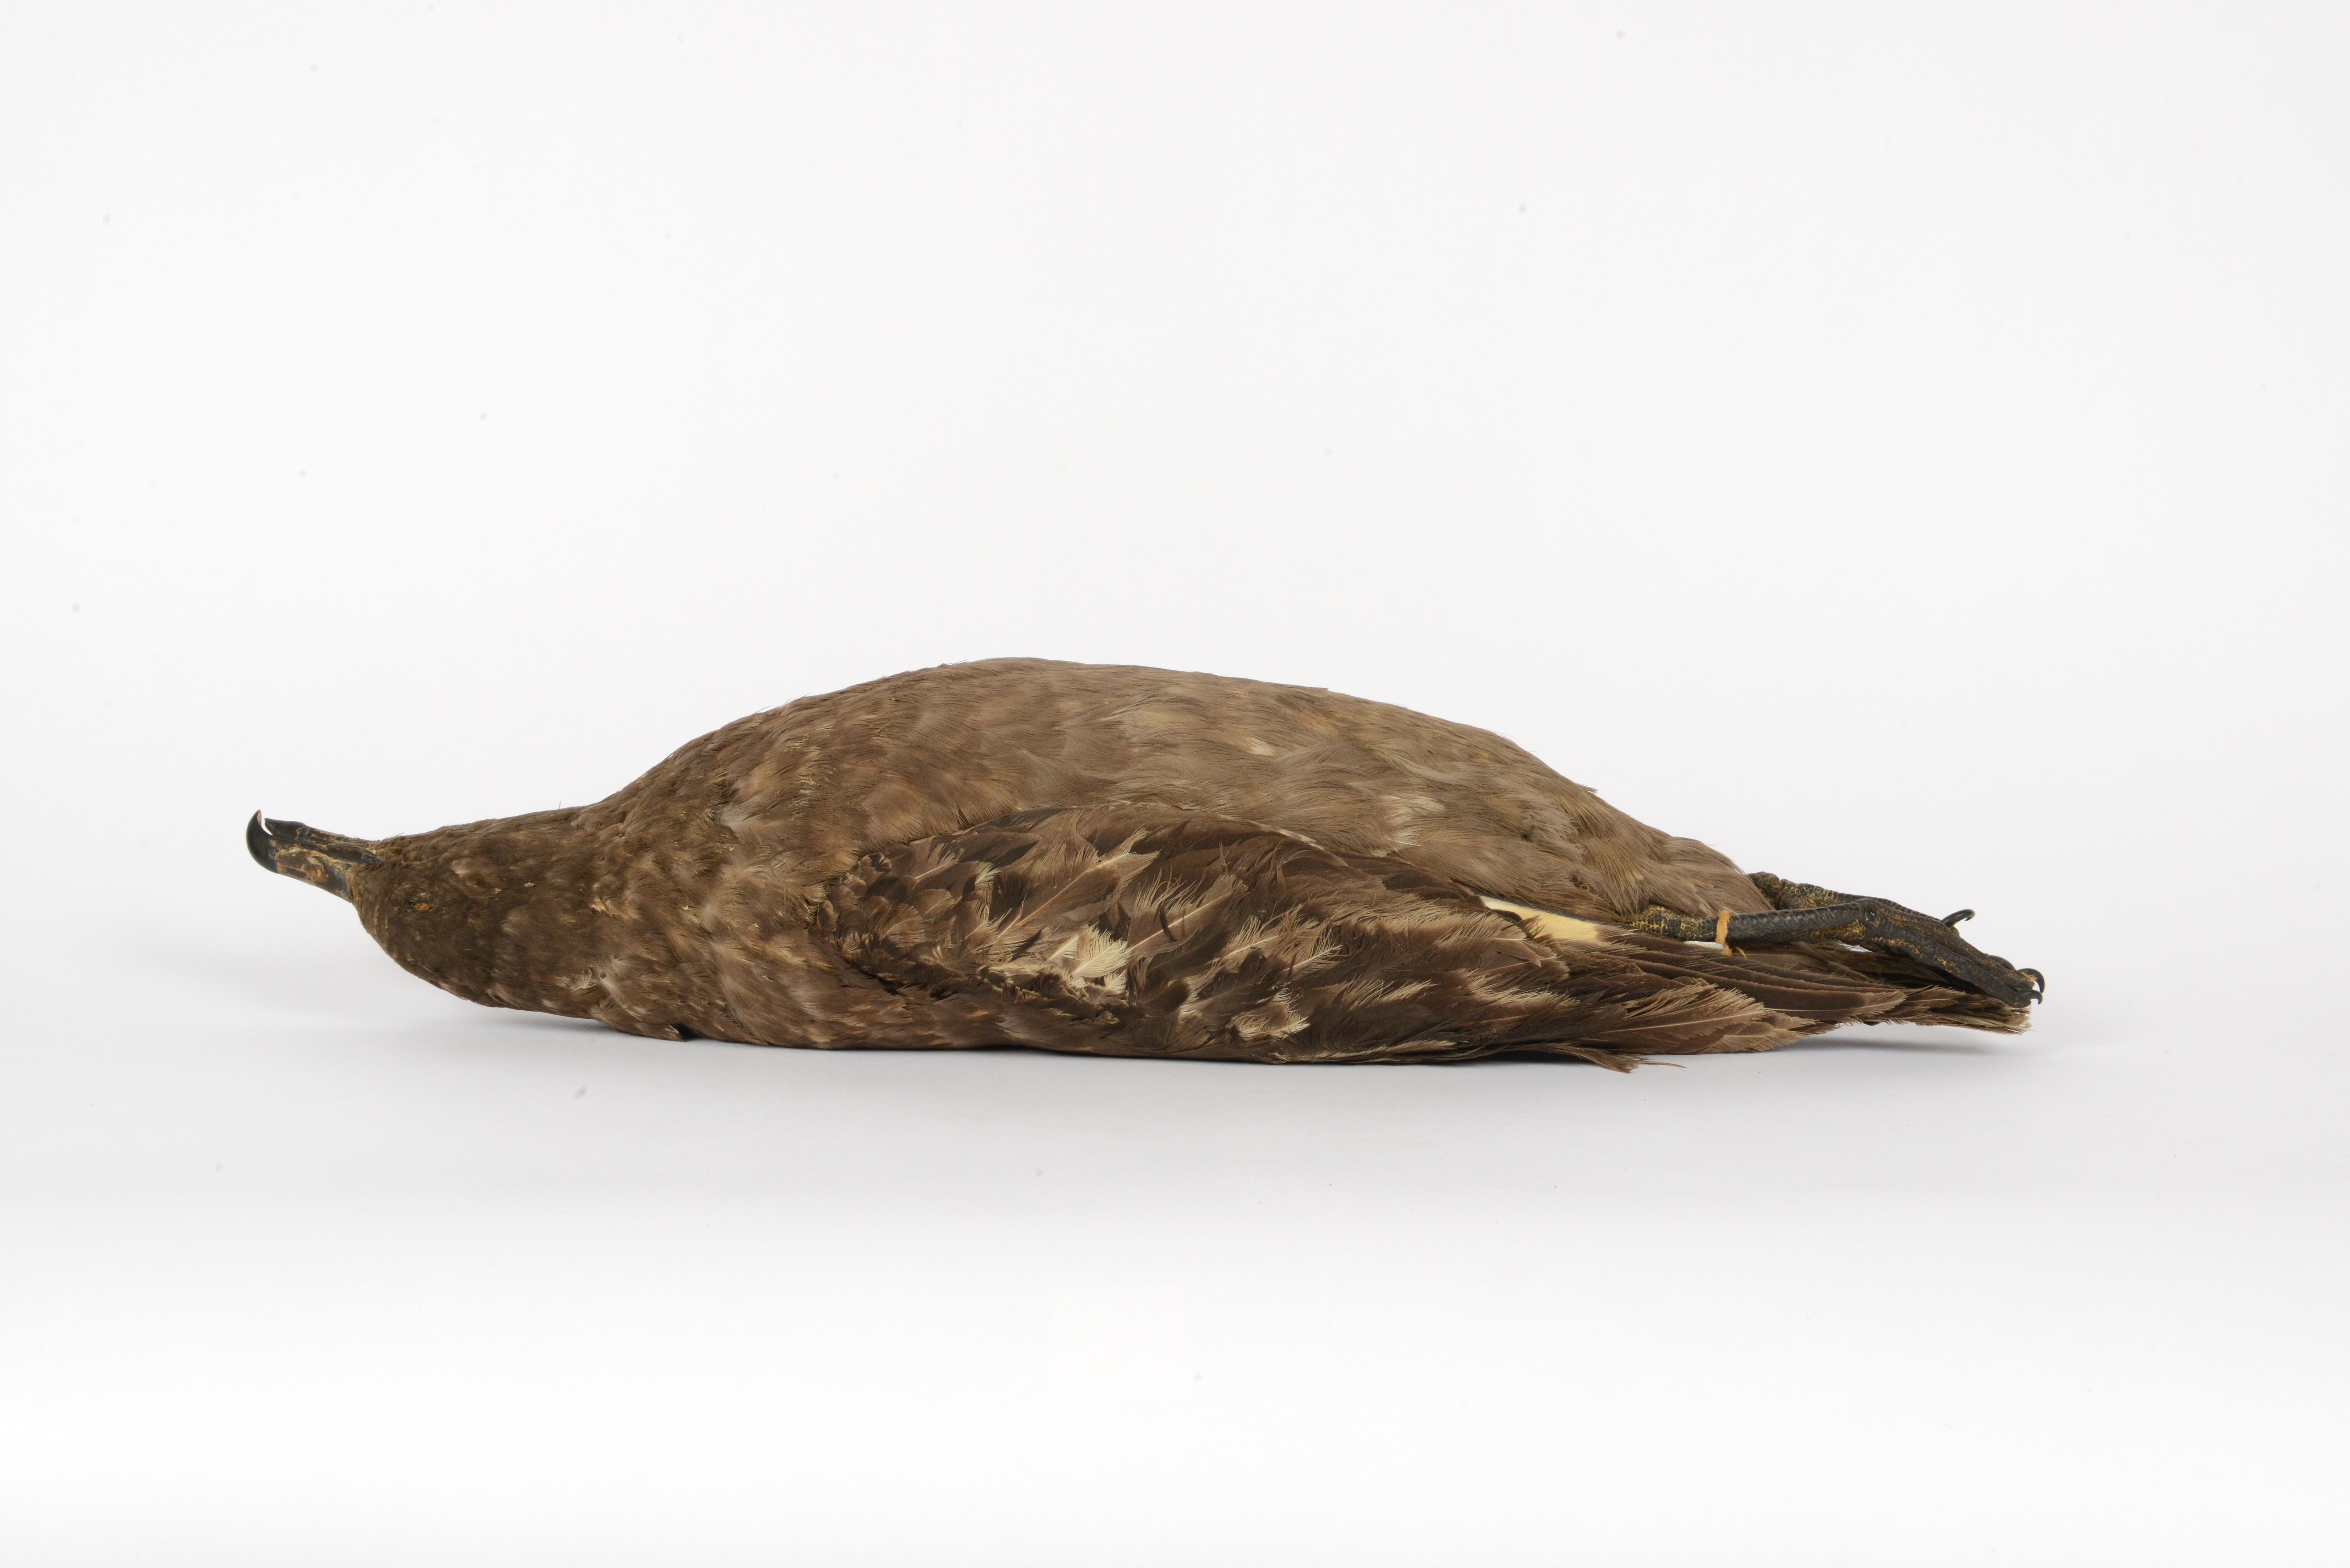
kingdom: Animalia
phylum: Chordata
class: Aves
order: Charadriiformes
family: Stercorariidae
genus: Stercorarius
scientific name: Stercorarius antarcticus
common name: Brown skua
